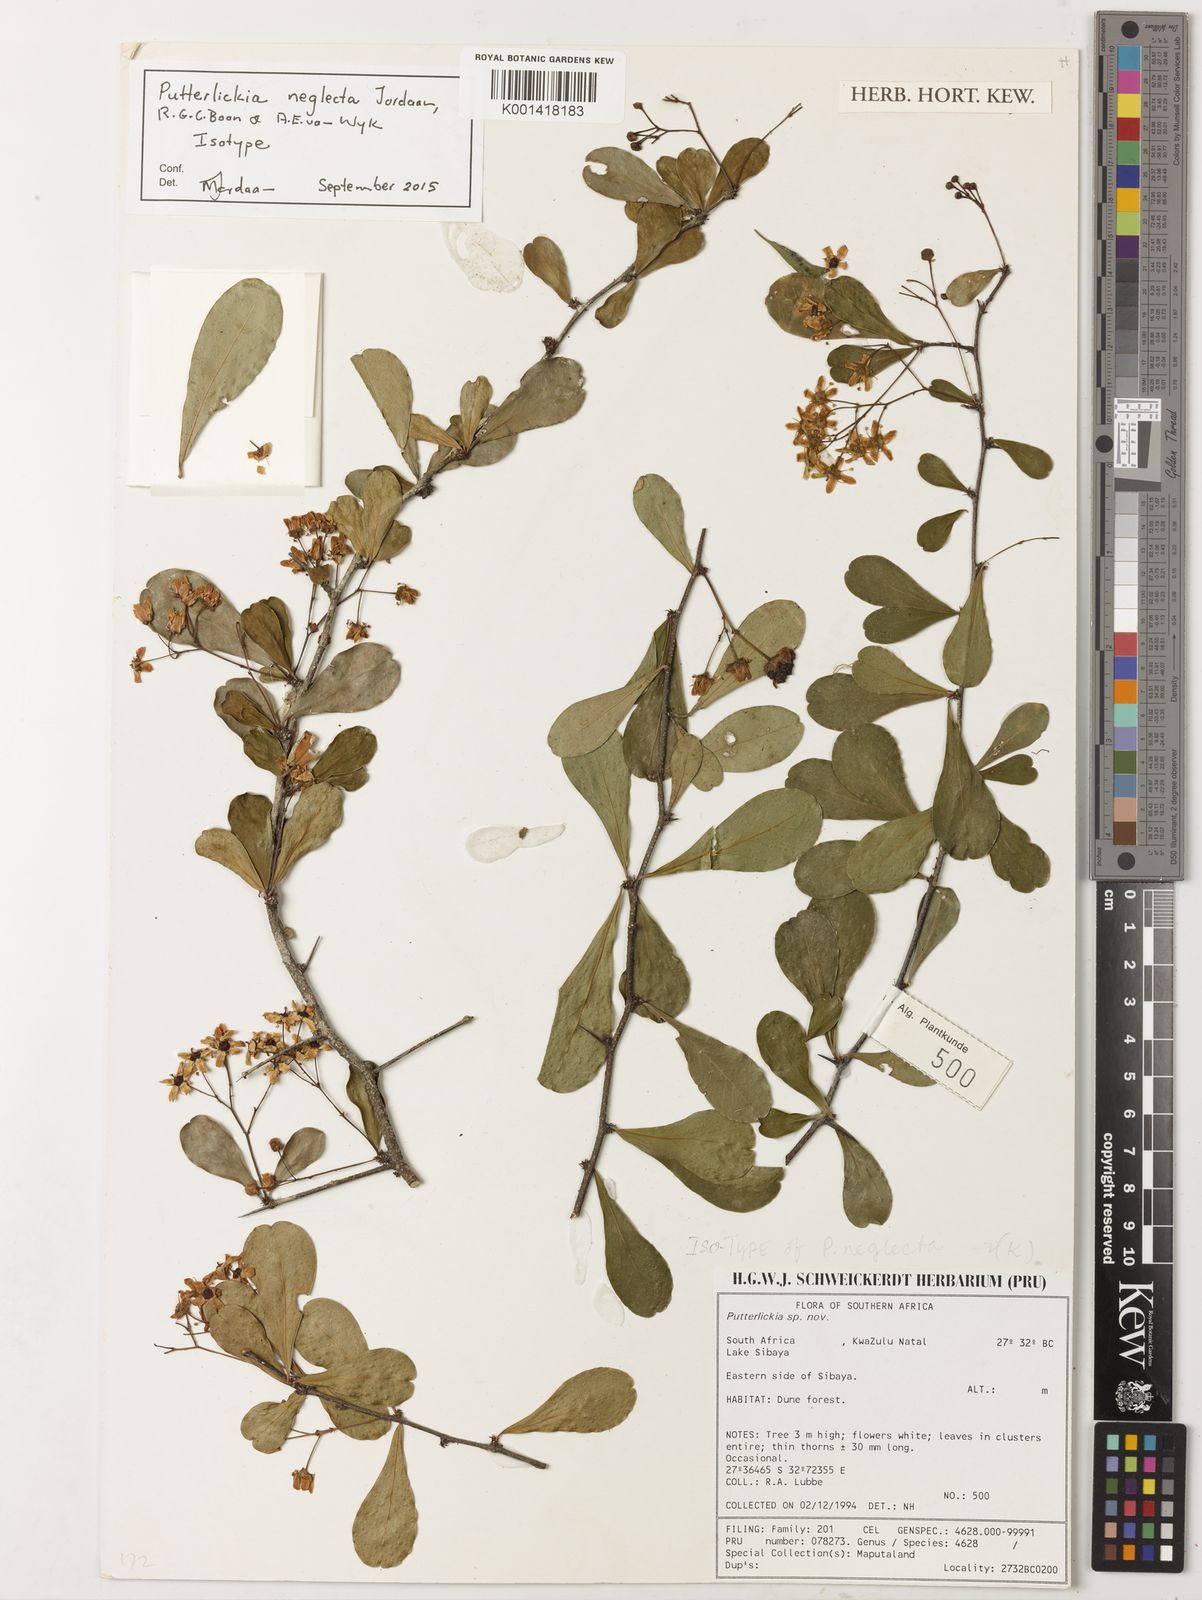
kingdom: Plantae
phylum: Tracheophyta
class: Magnoliopsida
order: Celastrales
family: Celastraceae
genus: Putterlickia
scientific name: Putterlickia neglecta
